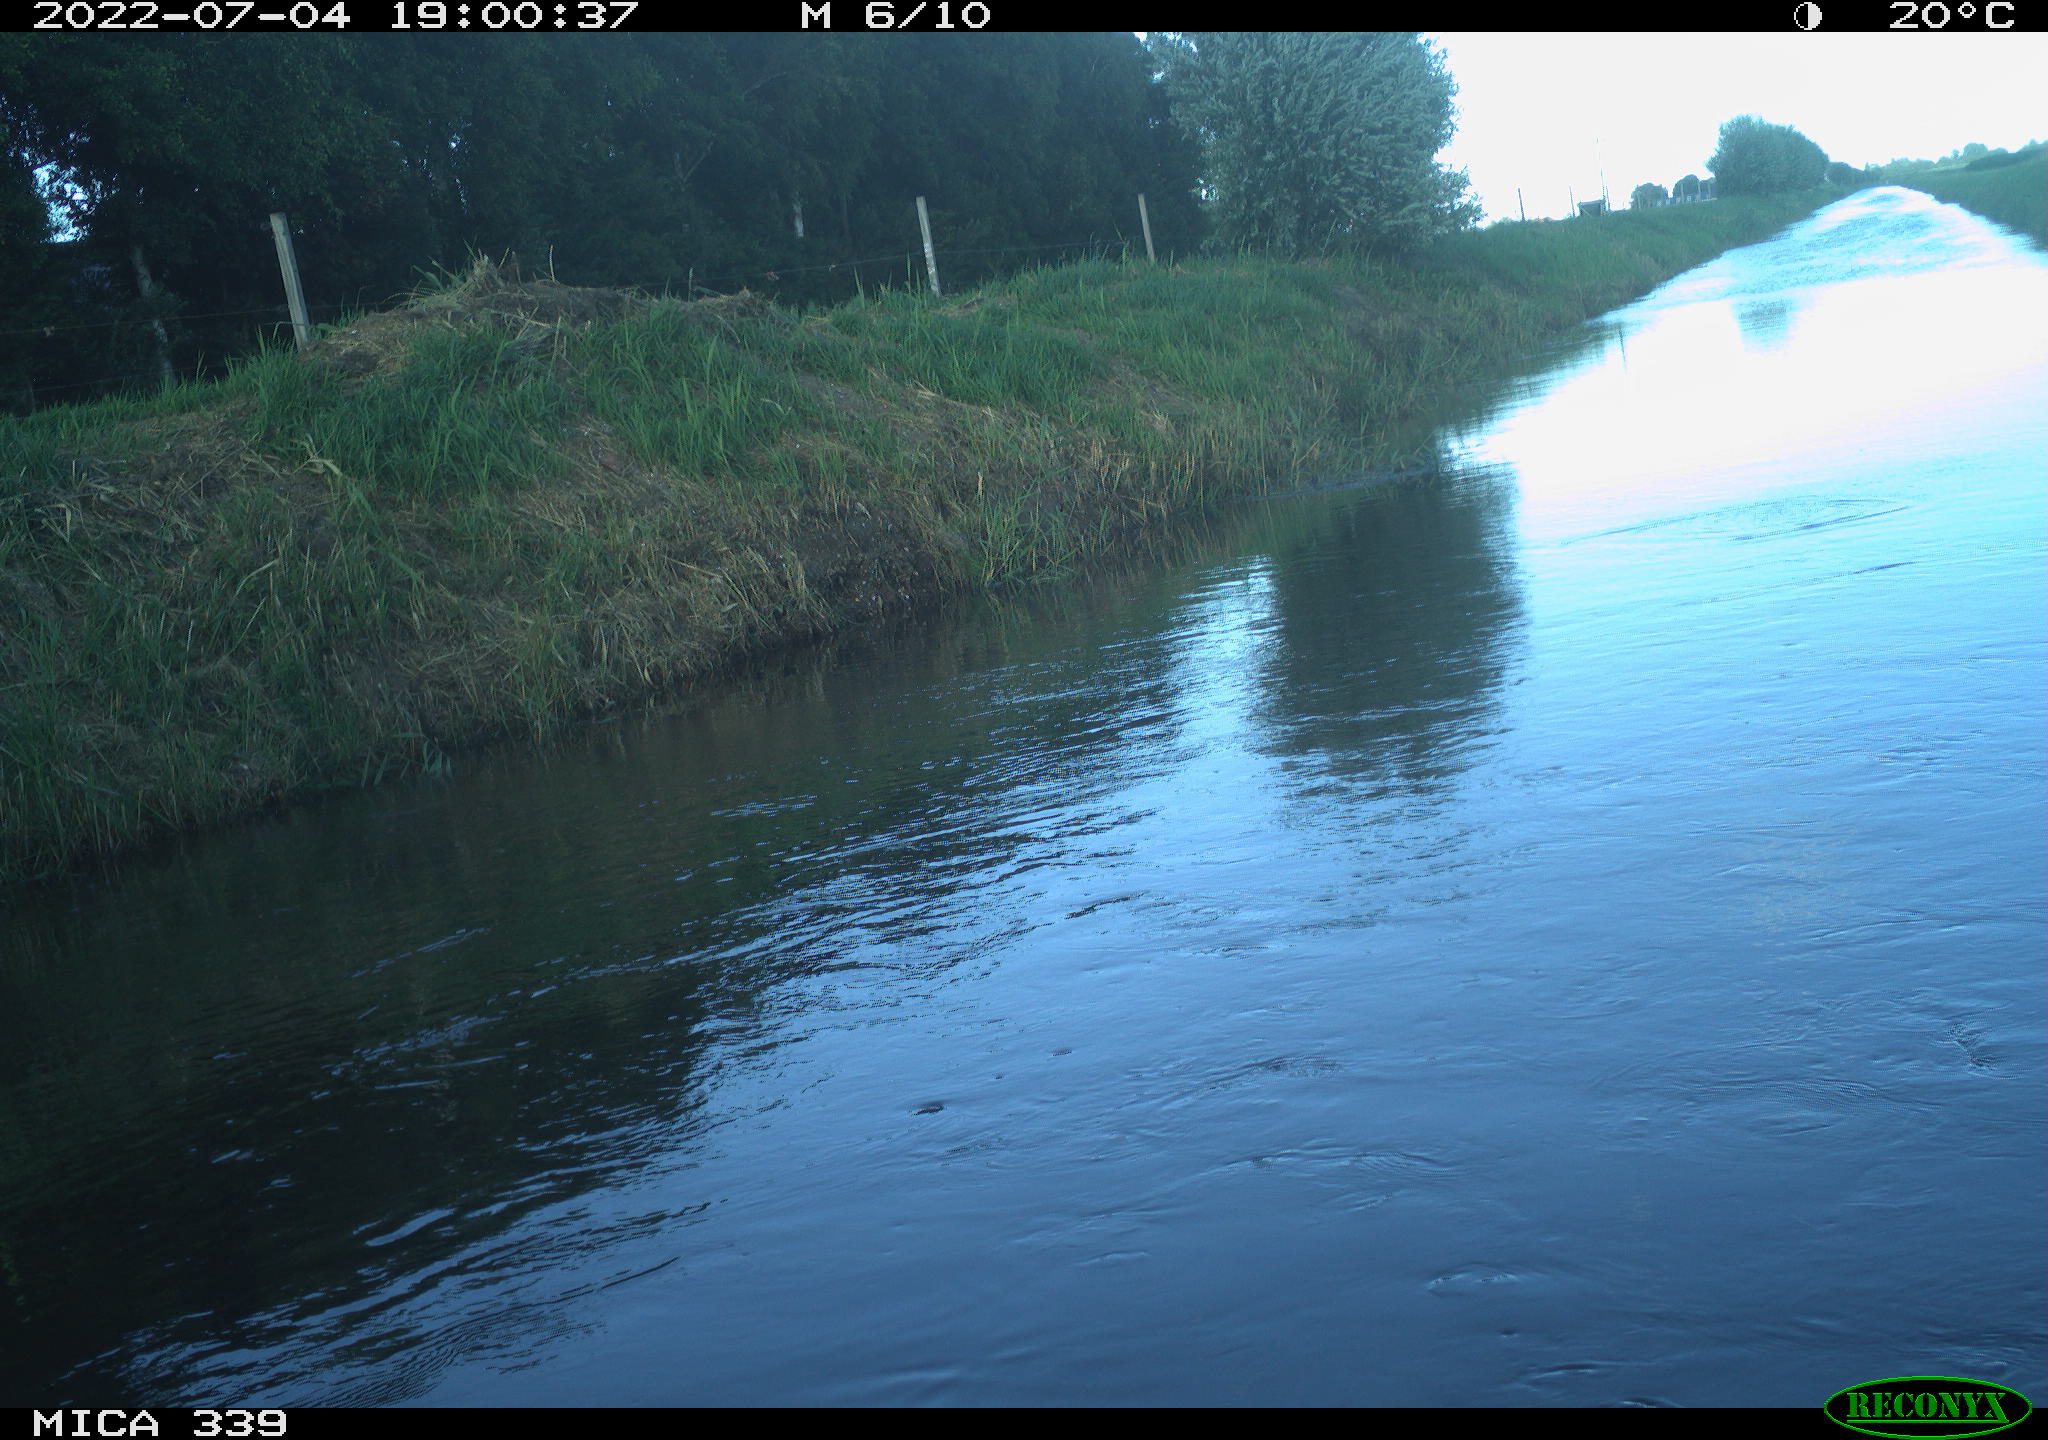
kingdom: Animalia
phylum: Chordata
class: Aves
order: Pelecaniformes
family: Ardeidae
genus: Ardea
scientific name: Ardea cinerea
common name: Grey heron
